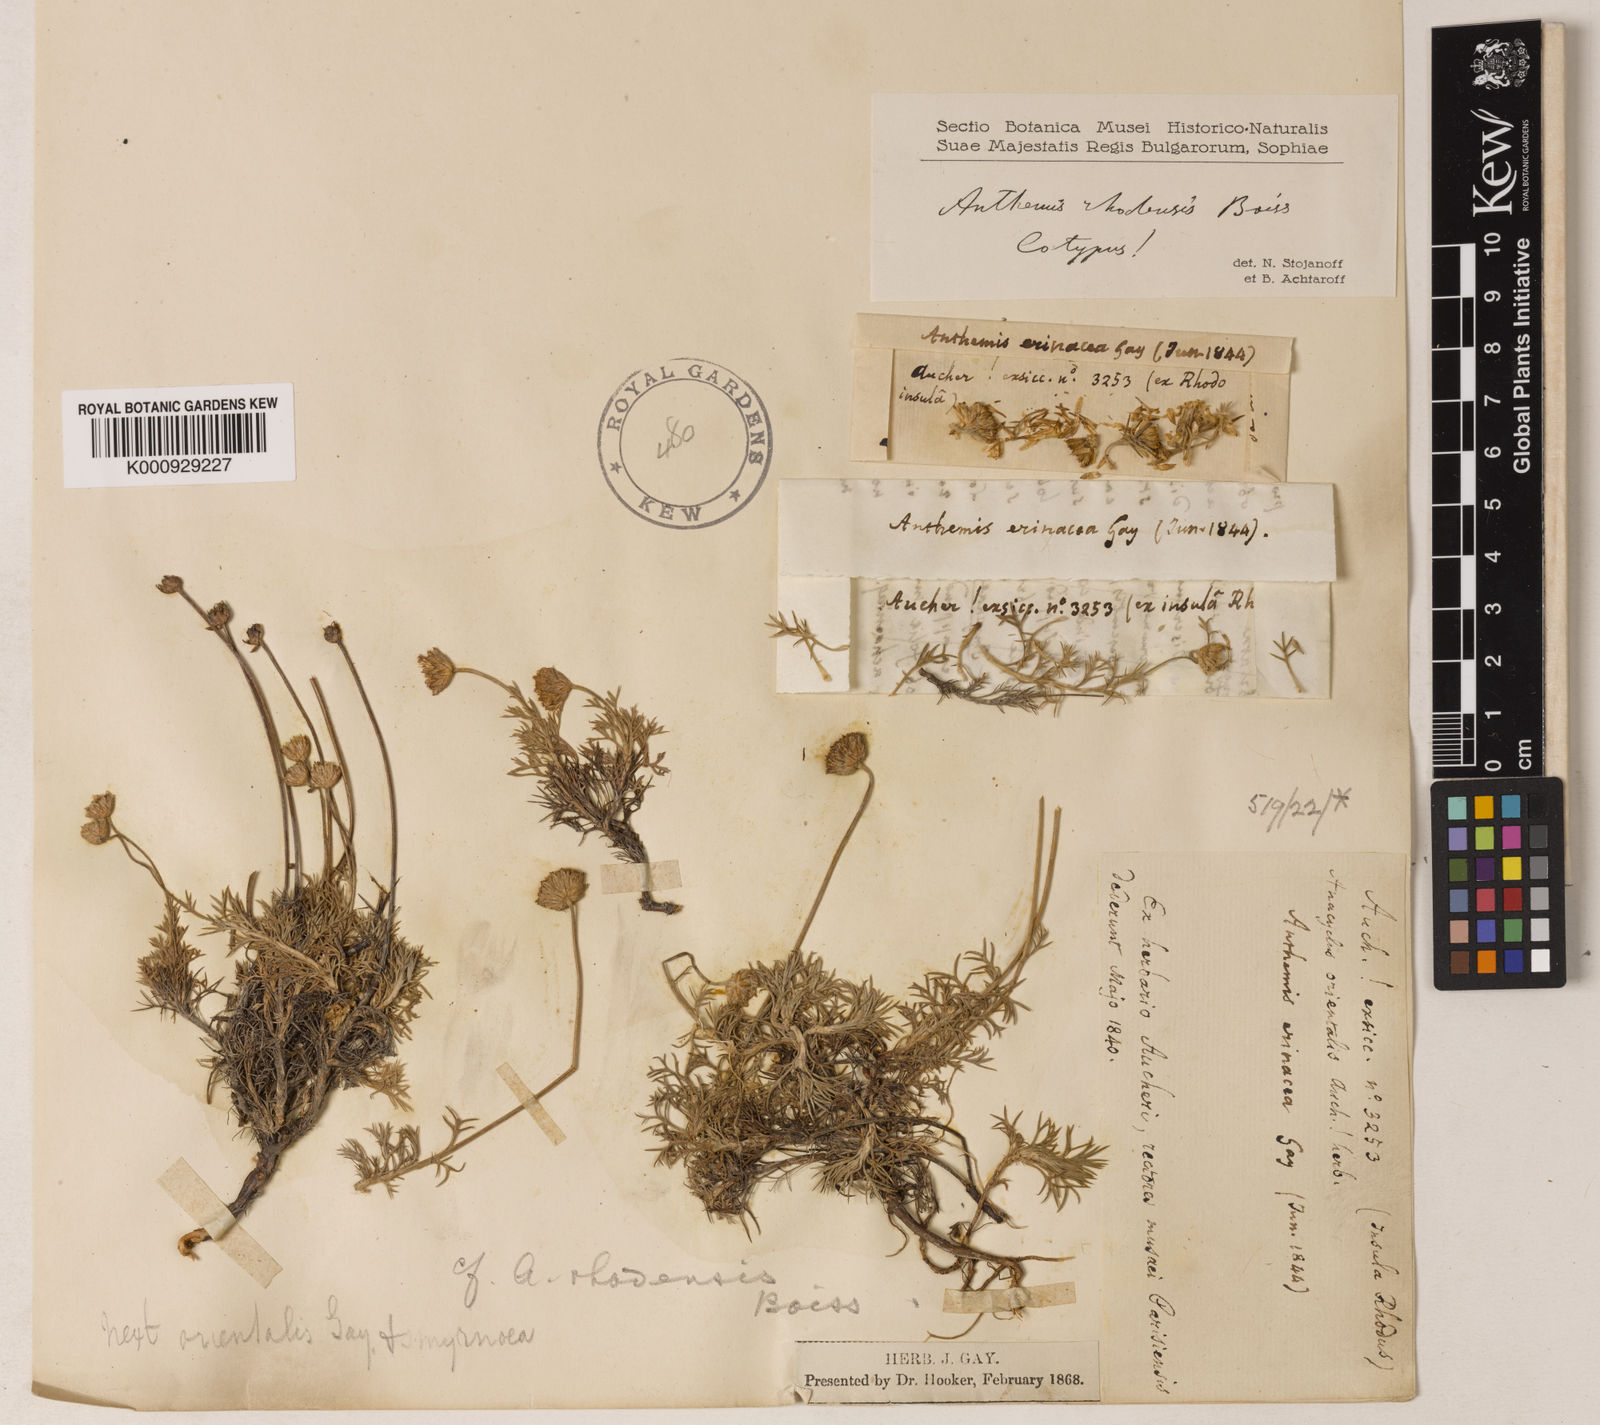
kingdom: Plantae
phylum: Tracheophyta
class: Magnoliopsida
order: Asterales
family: Asteraceae
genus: Anthemis
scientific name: Anthemis rhodensis
